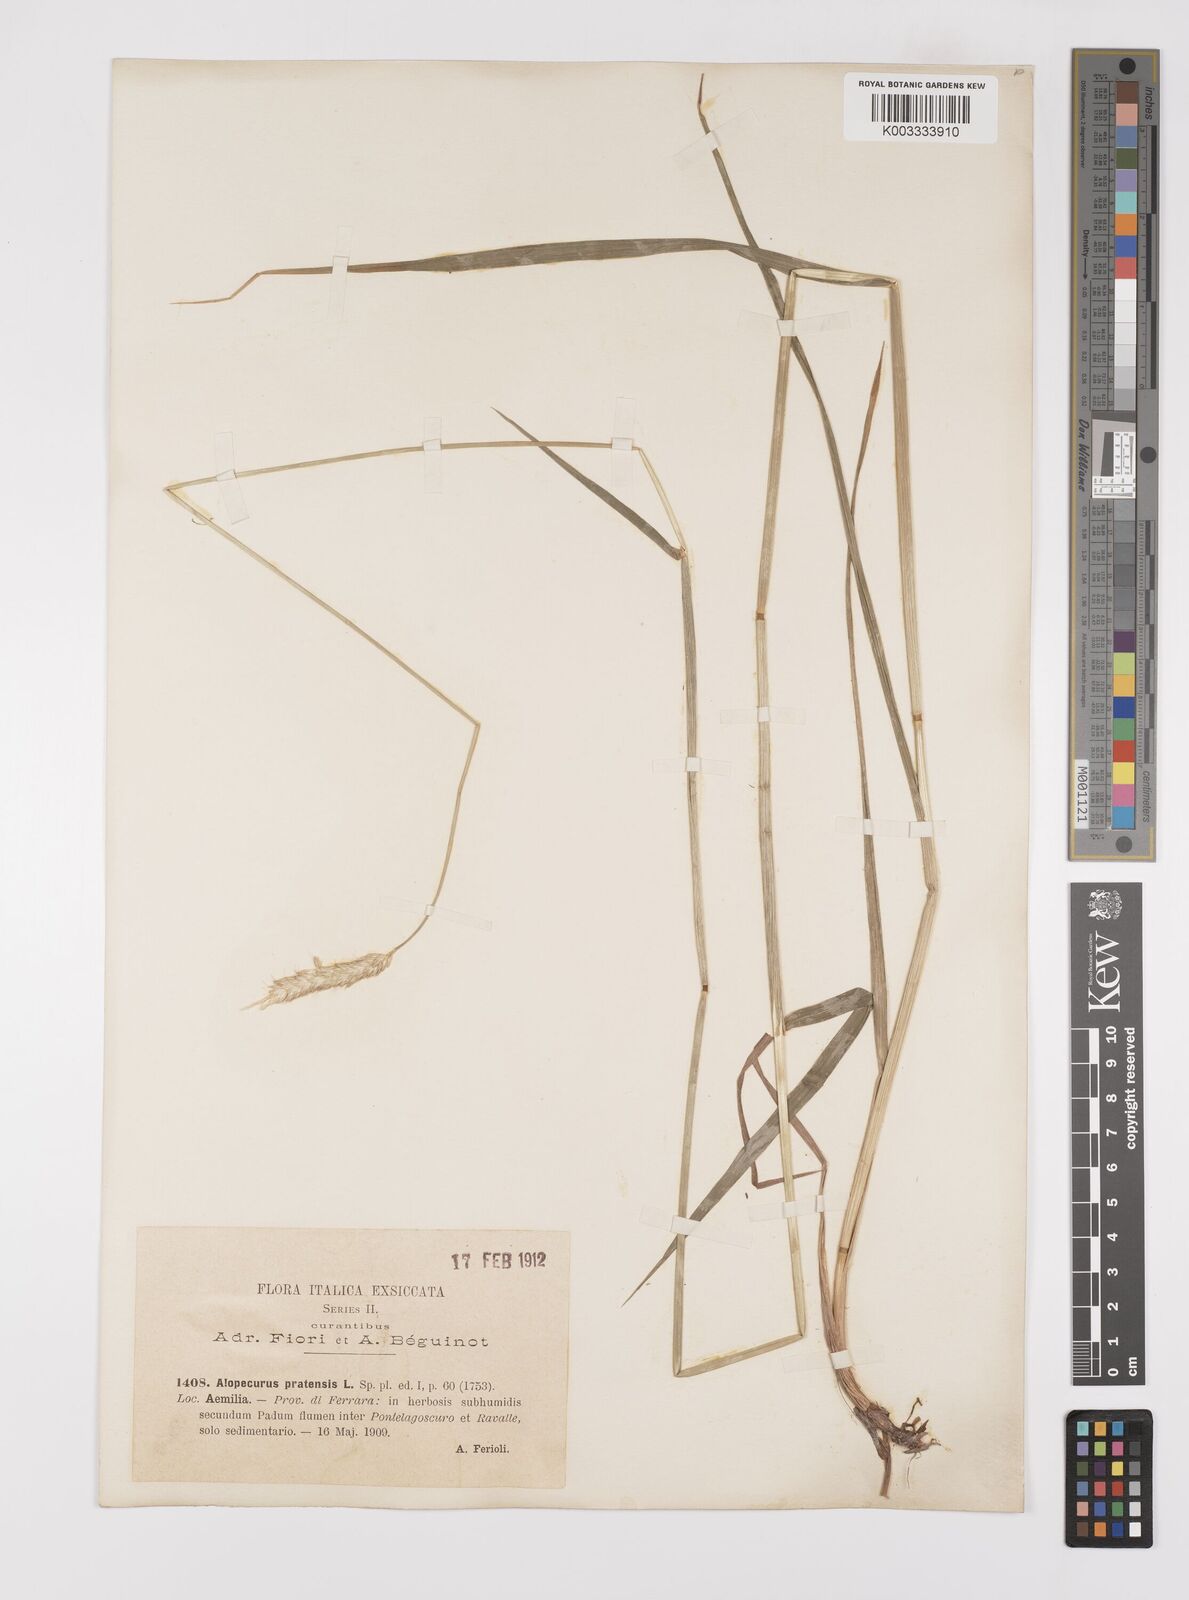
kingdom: Plantae
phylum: Tracheophyta
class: Liliopsida
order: Poales
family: Poaceae
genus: Alopecurus
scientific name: Alopecurus pratensis
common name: Meadow foxtail
